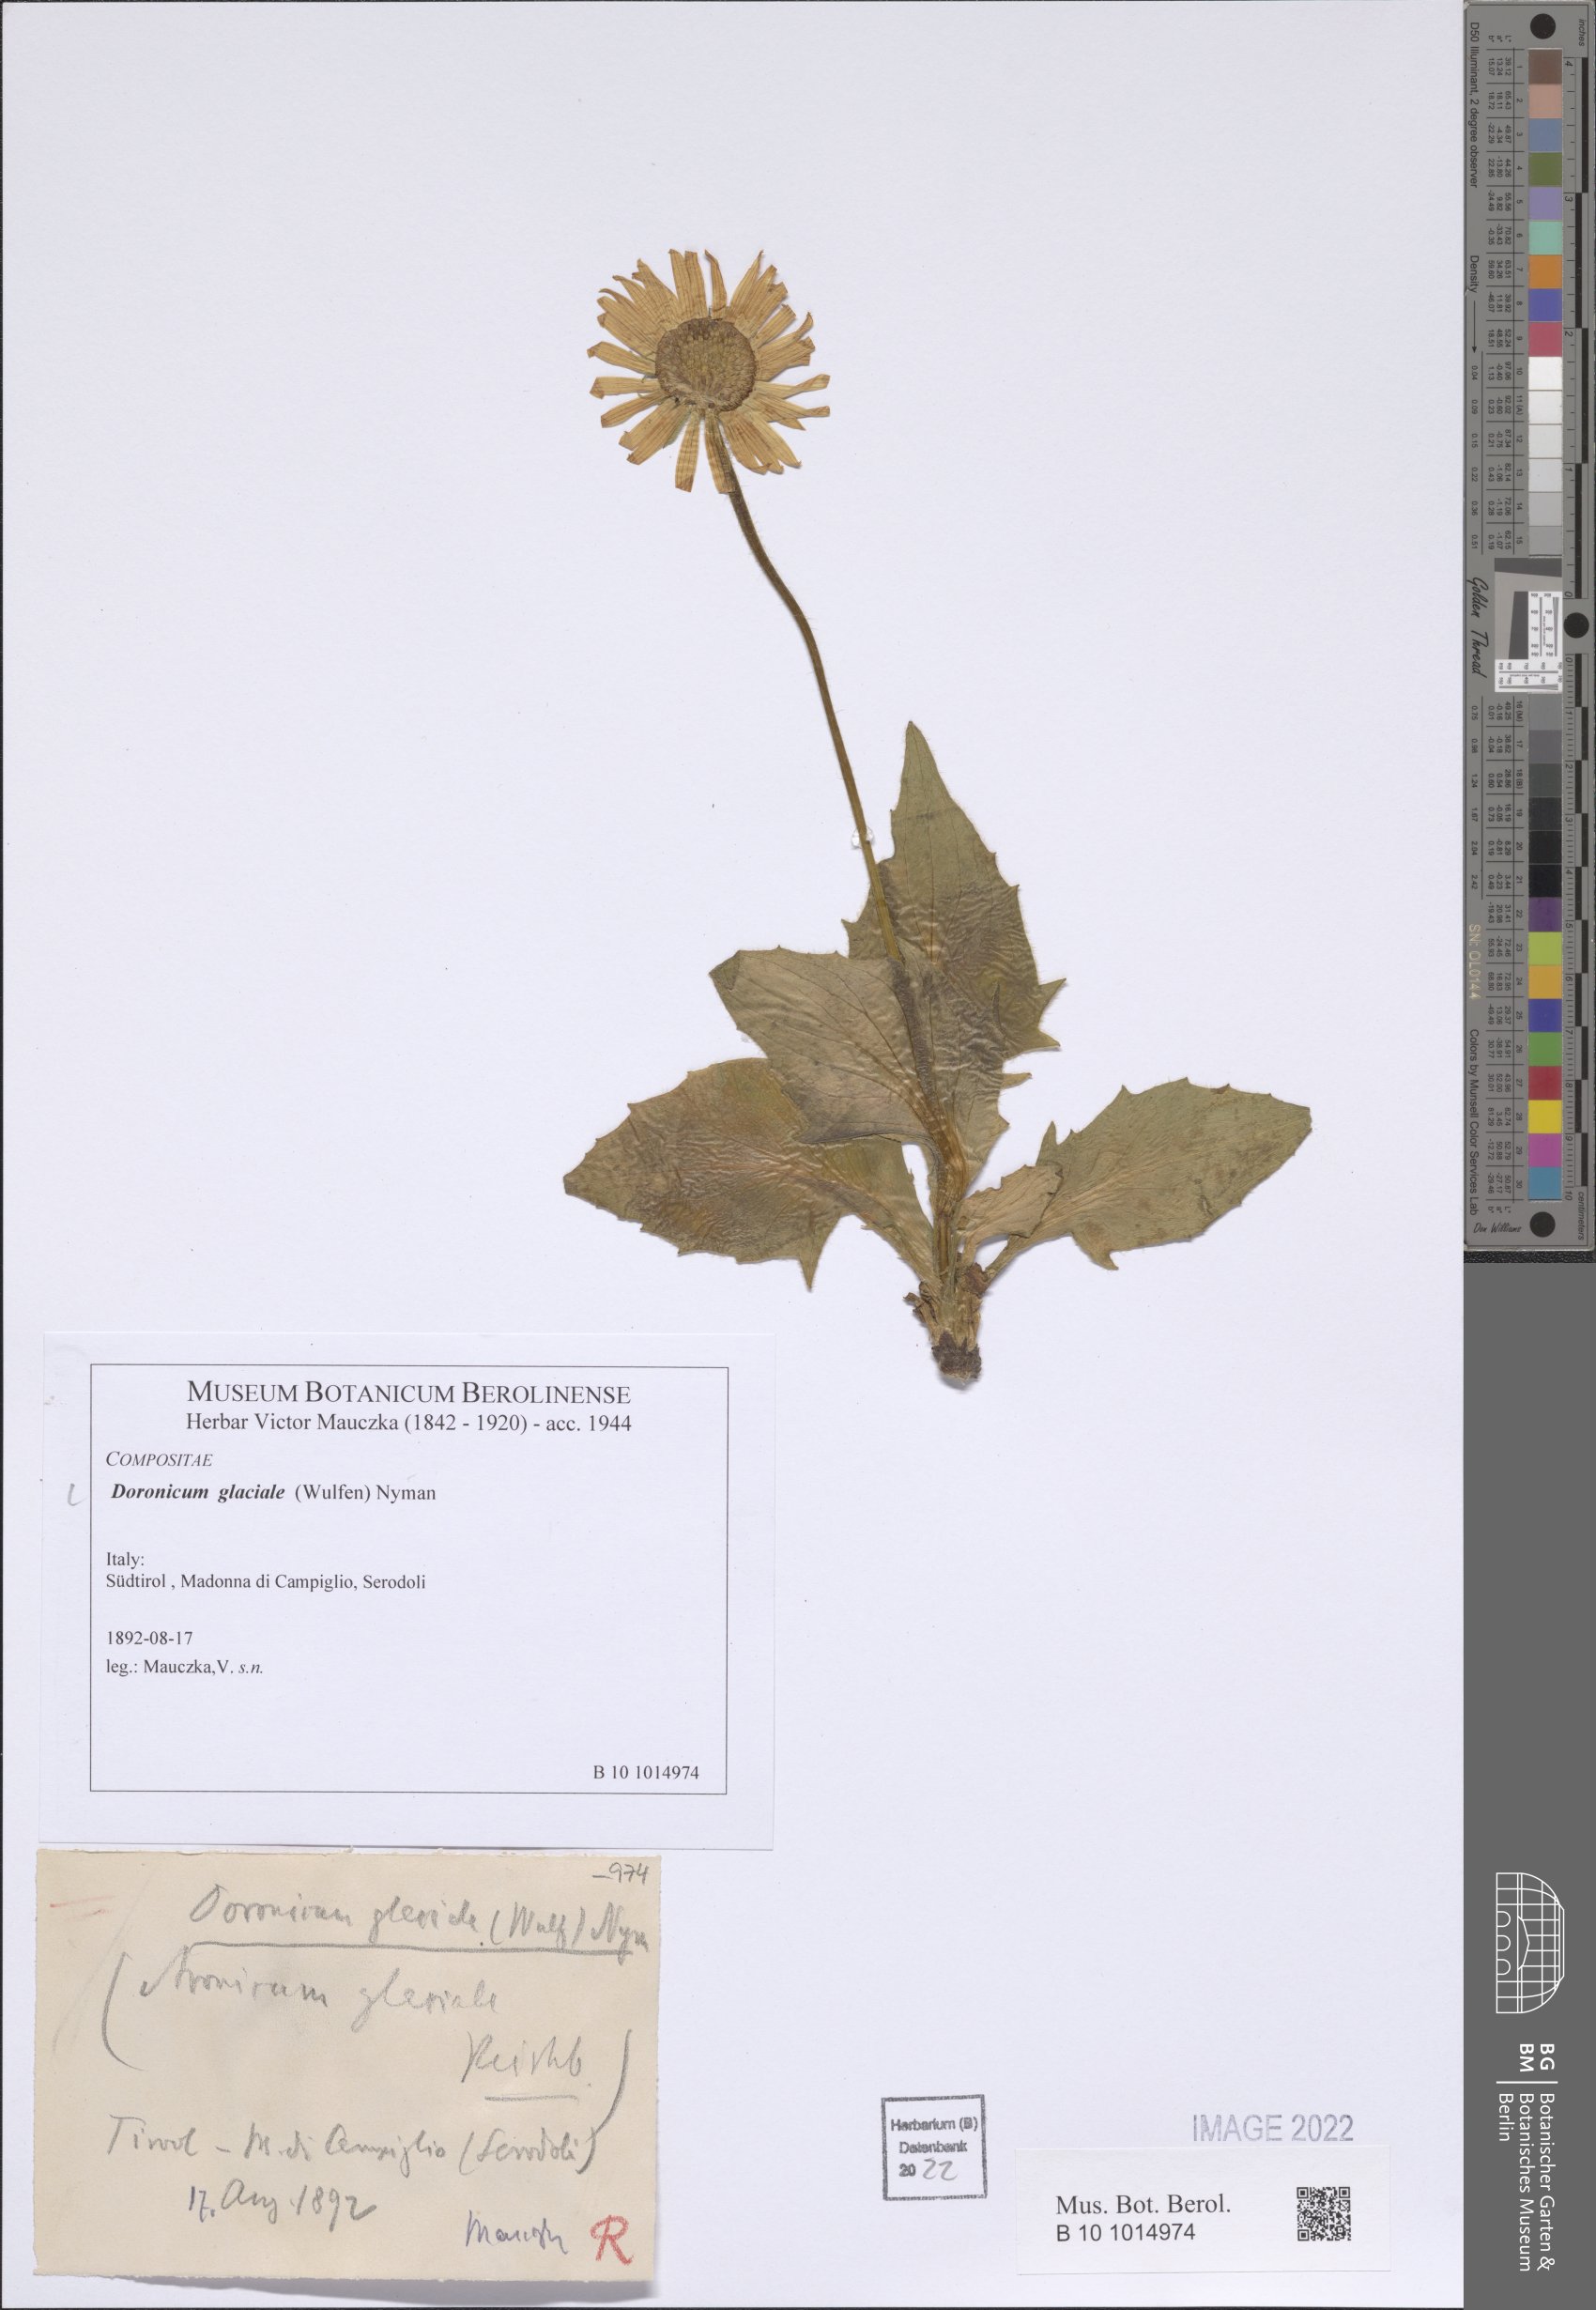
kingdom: Plantae
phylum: Tracheophyta
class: Magnoliopsida
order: Asterales
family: Asteraceae
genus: Doronicum
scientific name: Doronicum glaciale
